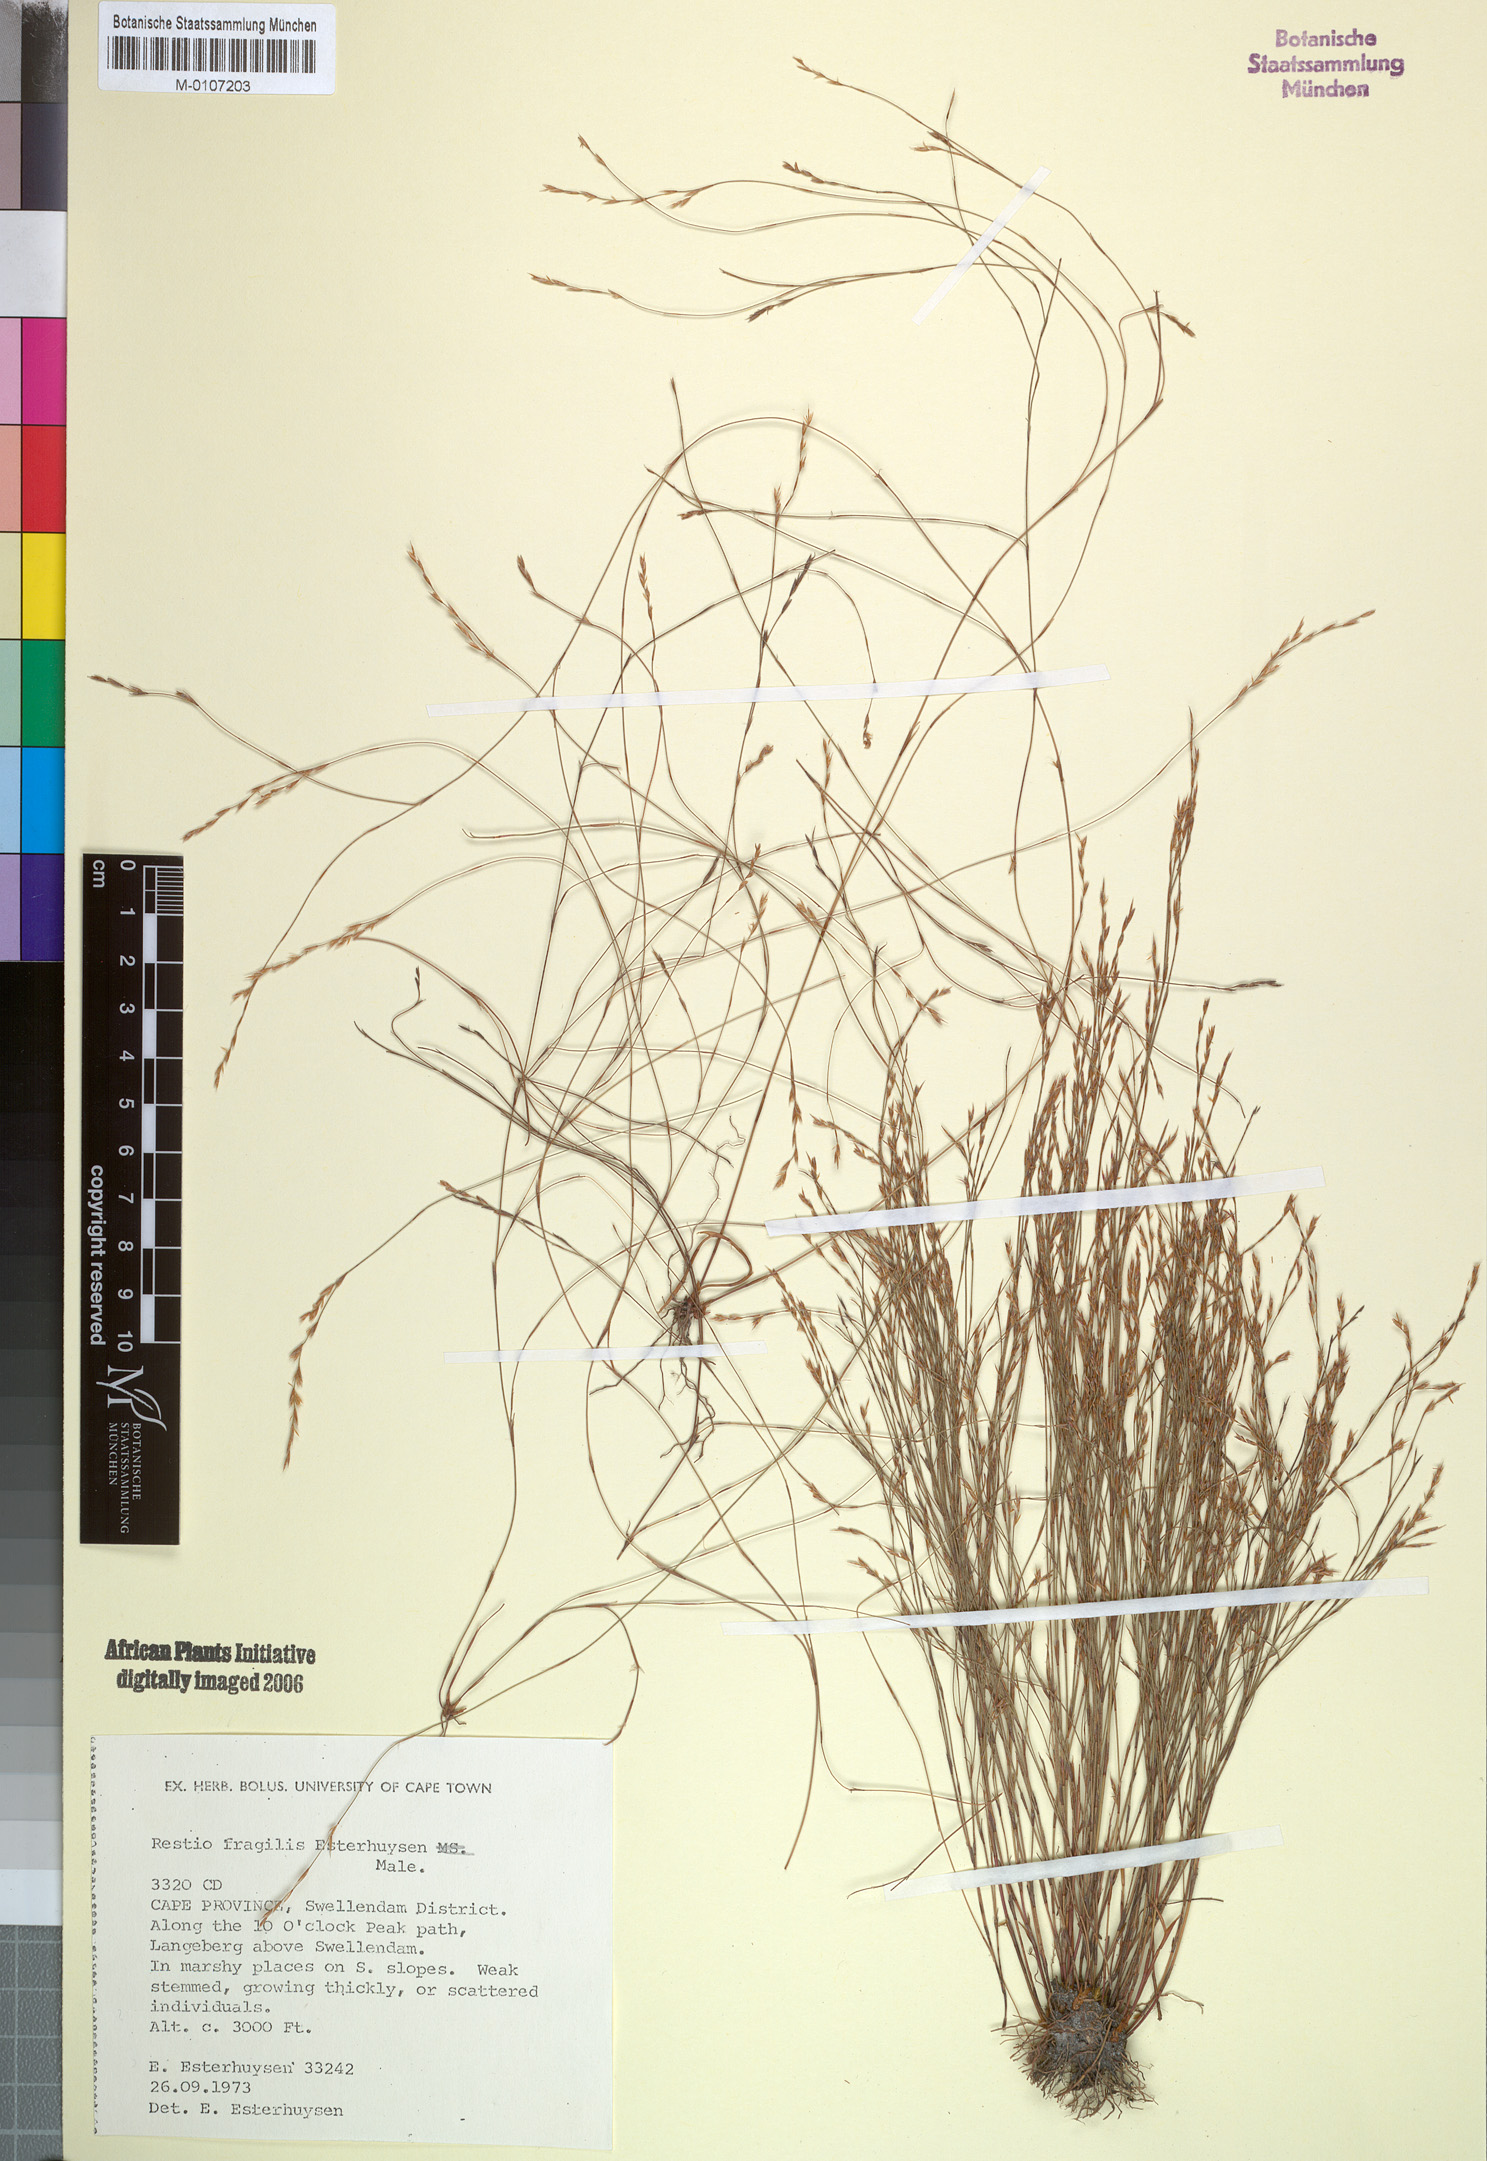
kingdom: Plantae
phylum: Tracheophyta
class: Liliopsida
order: Poales
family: Restionaceae
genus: Restio
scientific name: Restio fragilis
